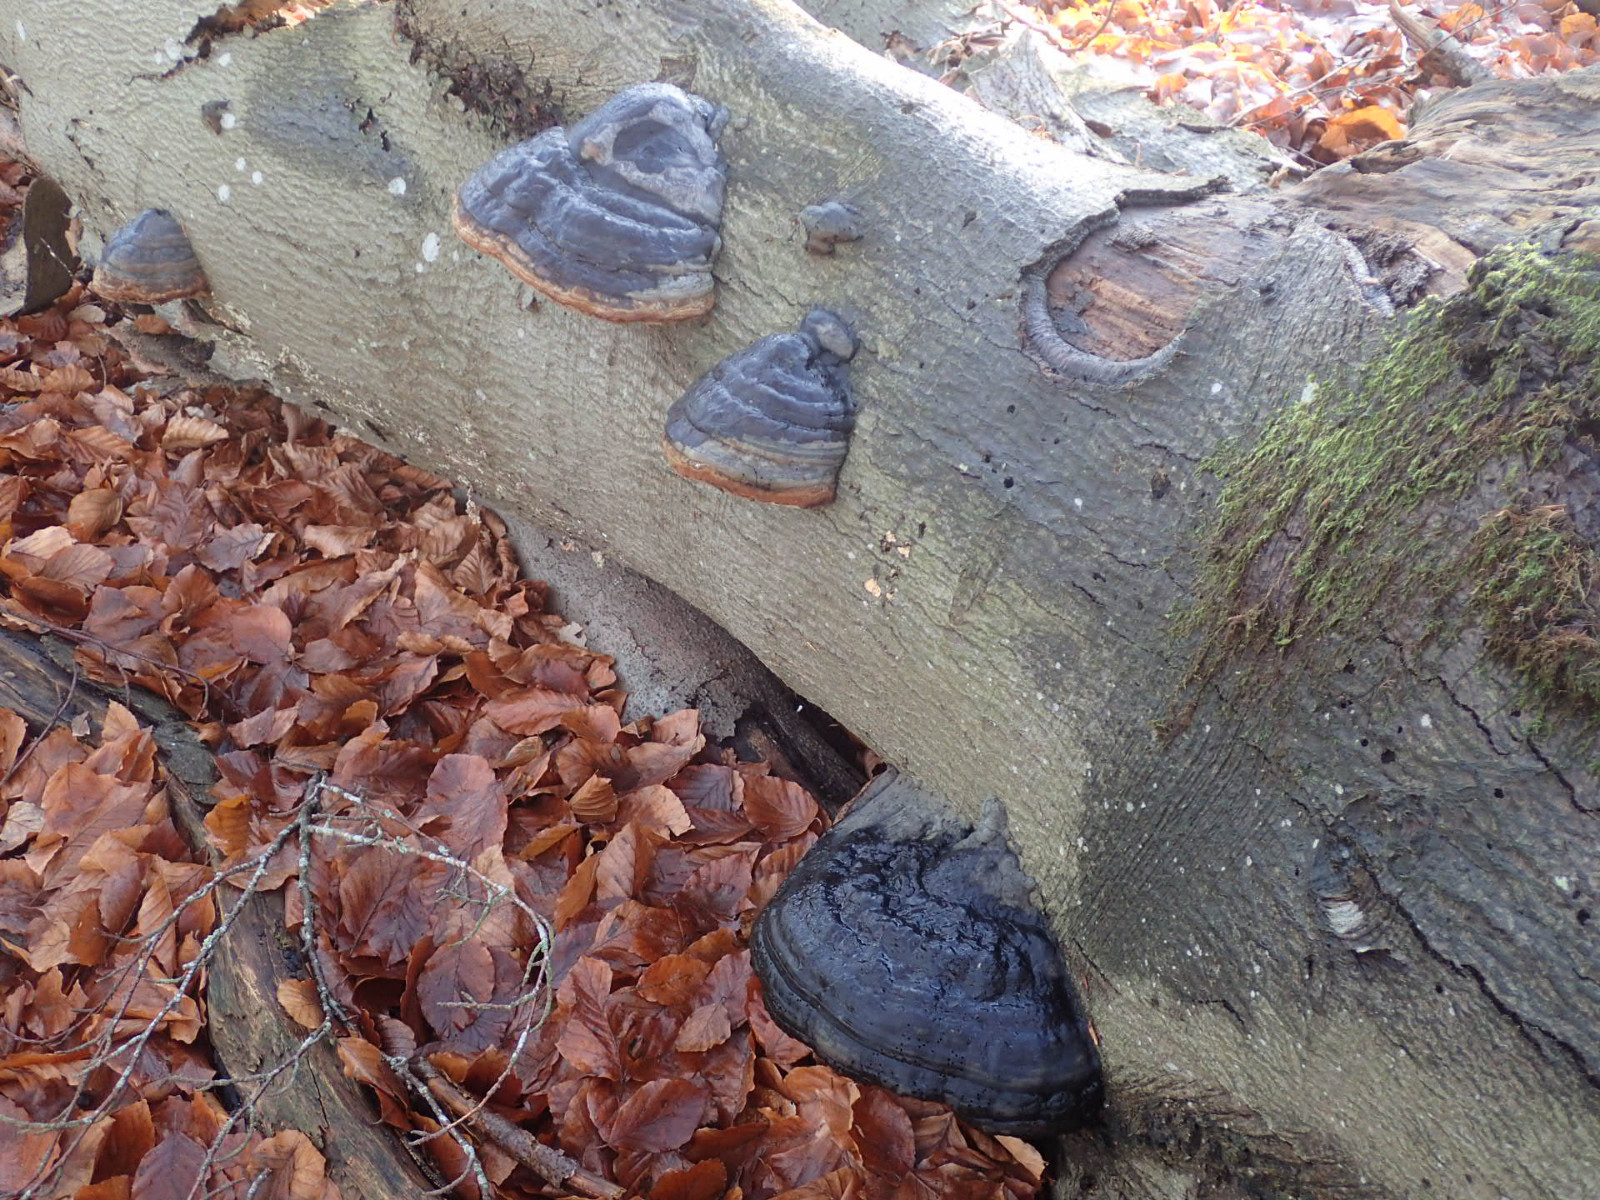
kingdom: Fungi
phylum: Basidiomycota
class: Agaricomycetes
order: Polyporales
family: Polyporaceae
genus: Fomes
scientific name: Fomes fomentarius
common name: tøndersvamp
